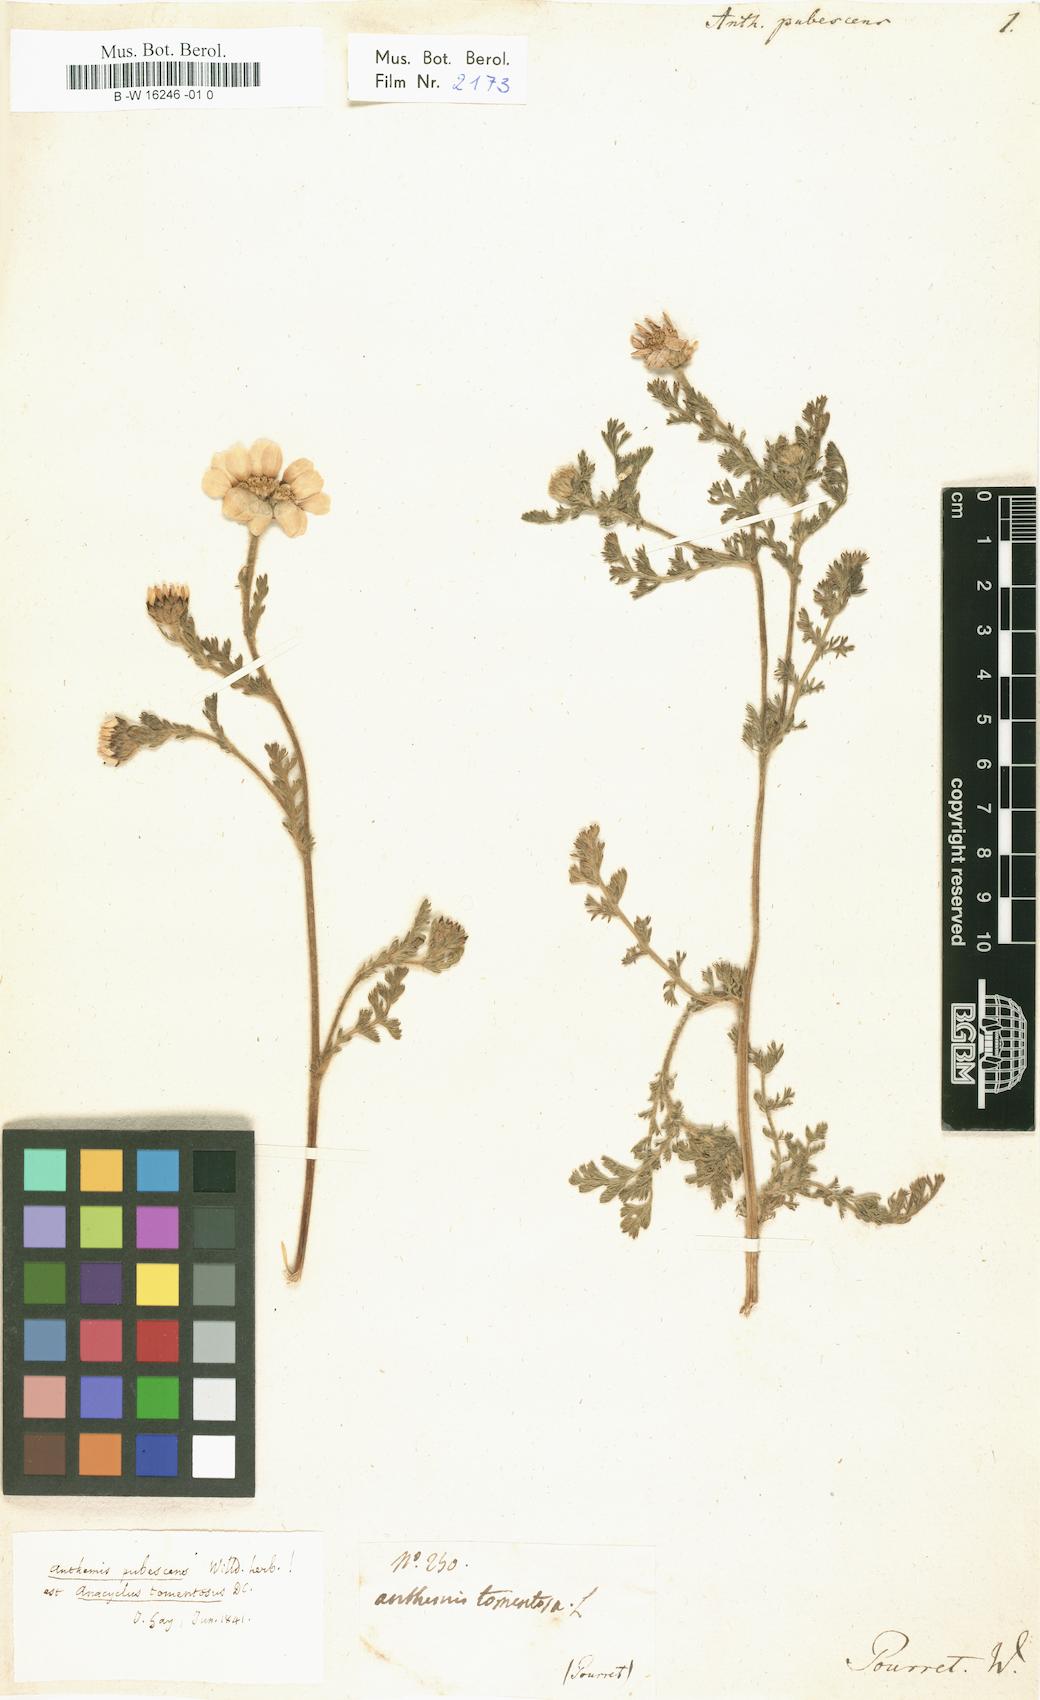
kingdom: Plantae
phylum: Tracheophyta
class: Magnoliopsida
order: Asterales
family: Asteraceae
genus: Anacyclus
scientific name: Anacyclus clavatus
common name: Whitebuttons
